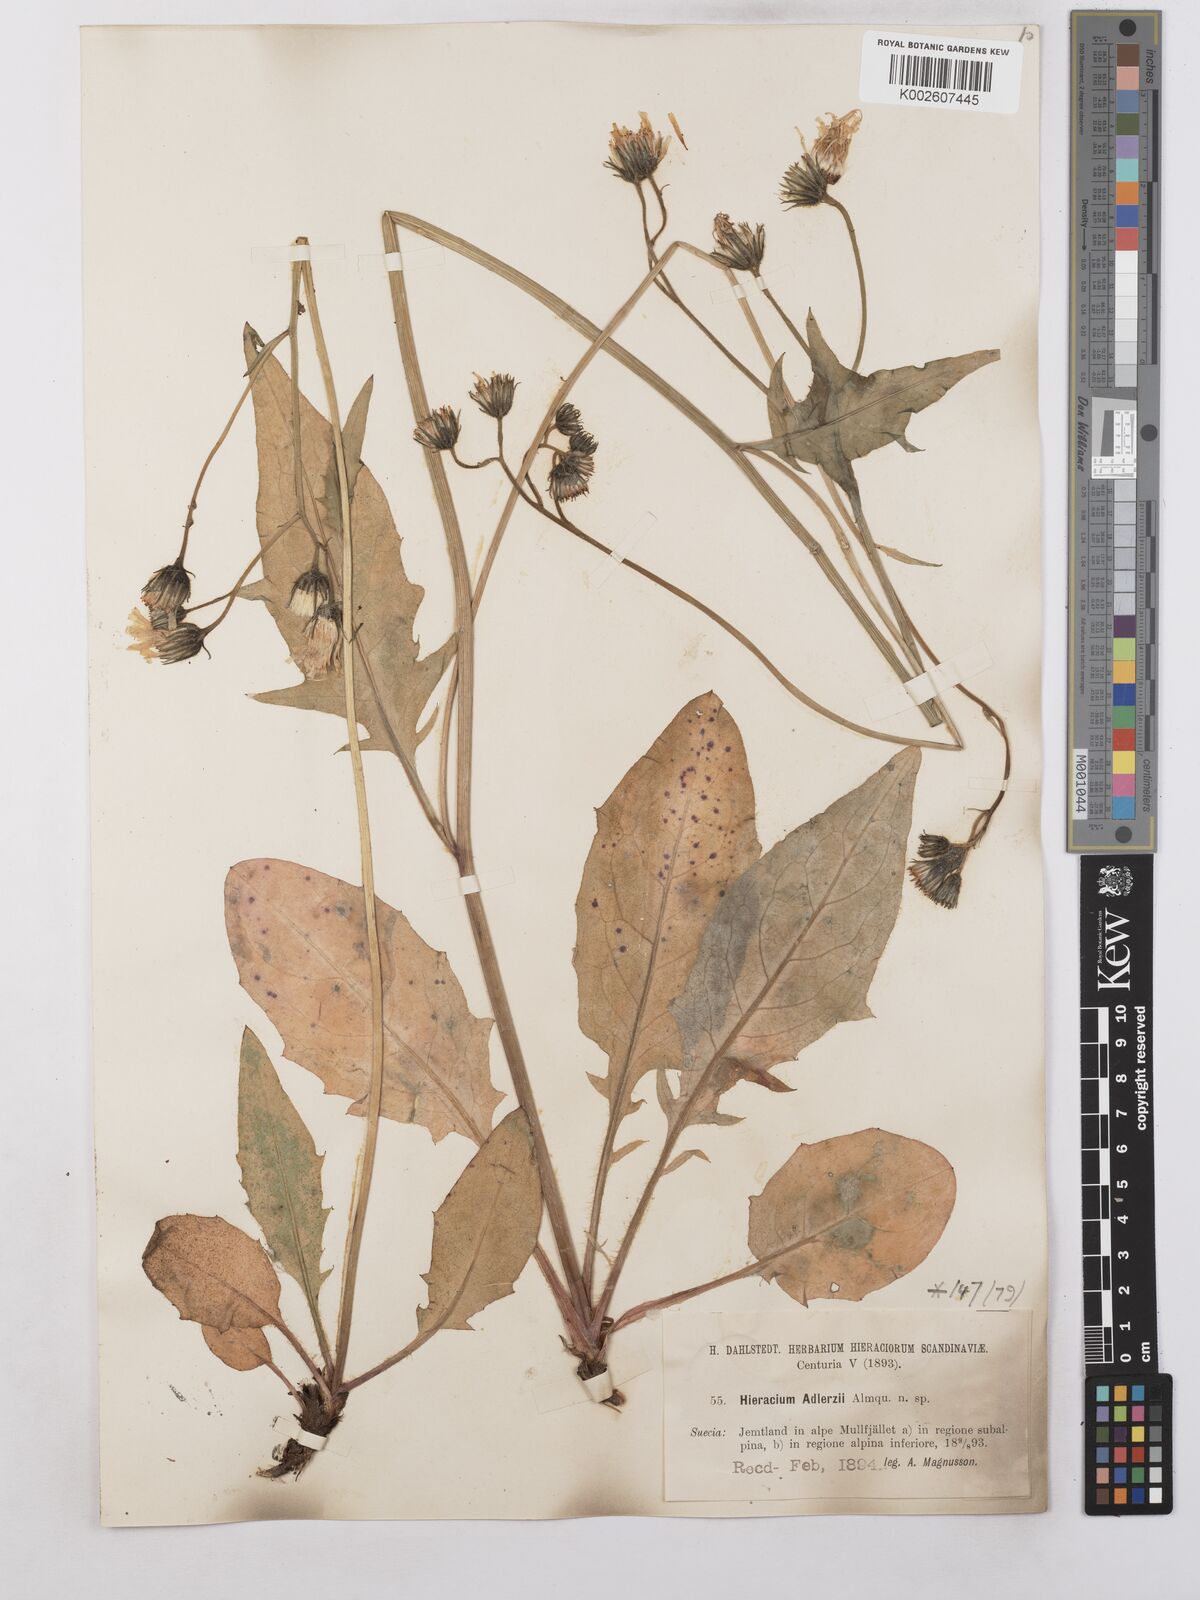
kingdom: Plantae
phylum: Tracheophyta
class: Magnoliopsida
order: Asterales
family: Asteraceae
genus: Hieracium
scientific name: Hieracium caesium
